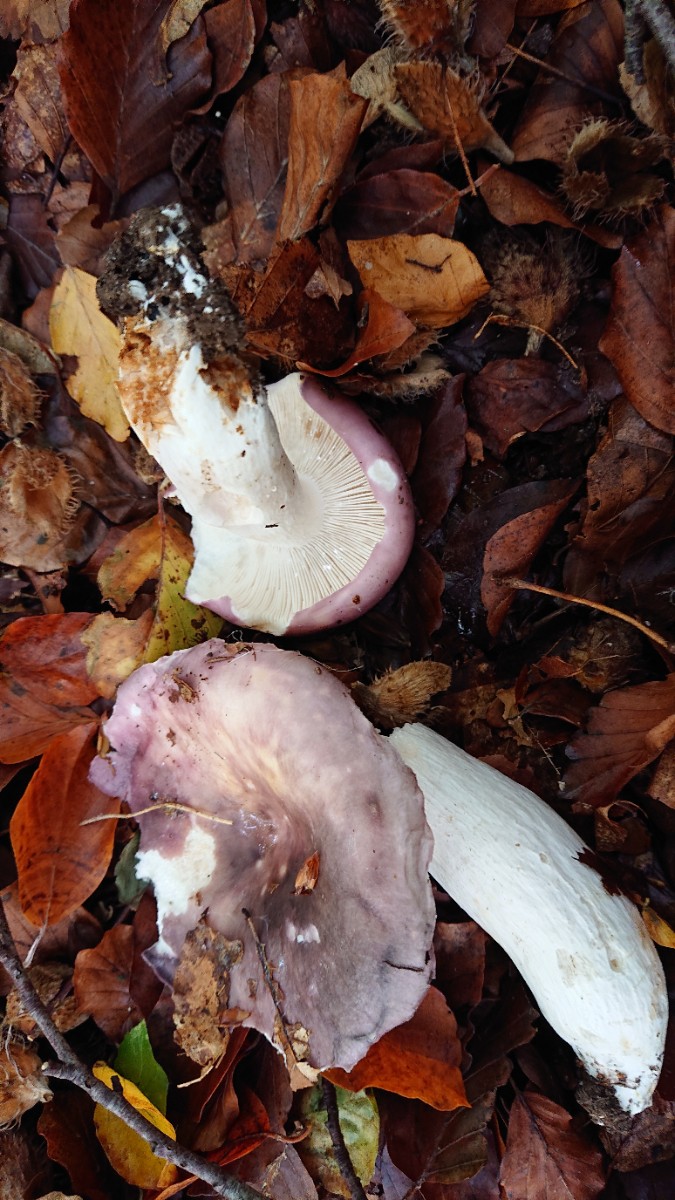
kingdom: Fungi
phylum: Basidiomycota
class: Agaricomycetes
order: Russulales
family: Russulaceae
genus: Russula
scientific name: Russula cyanoxantha
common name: broget skørhat
